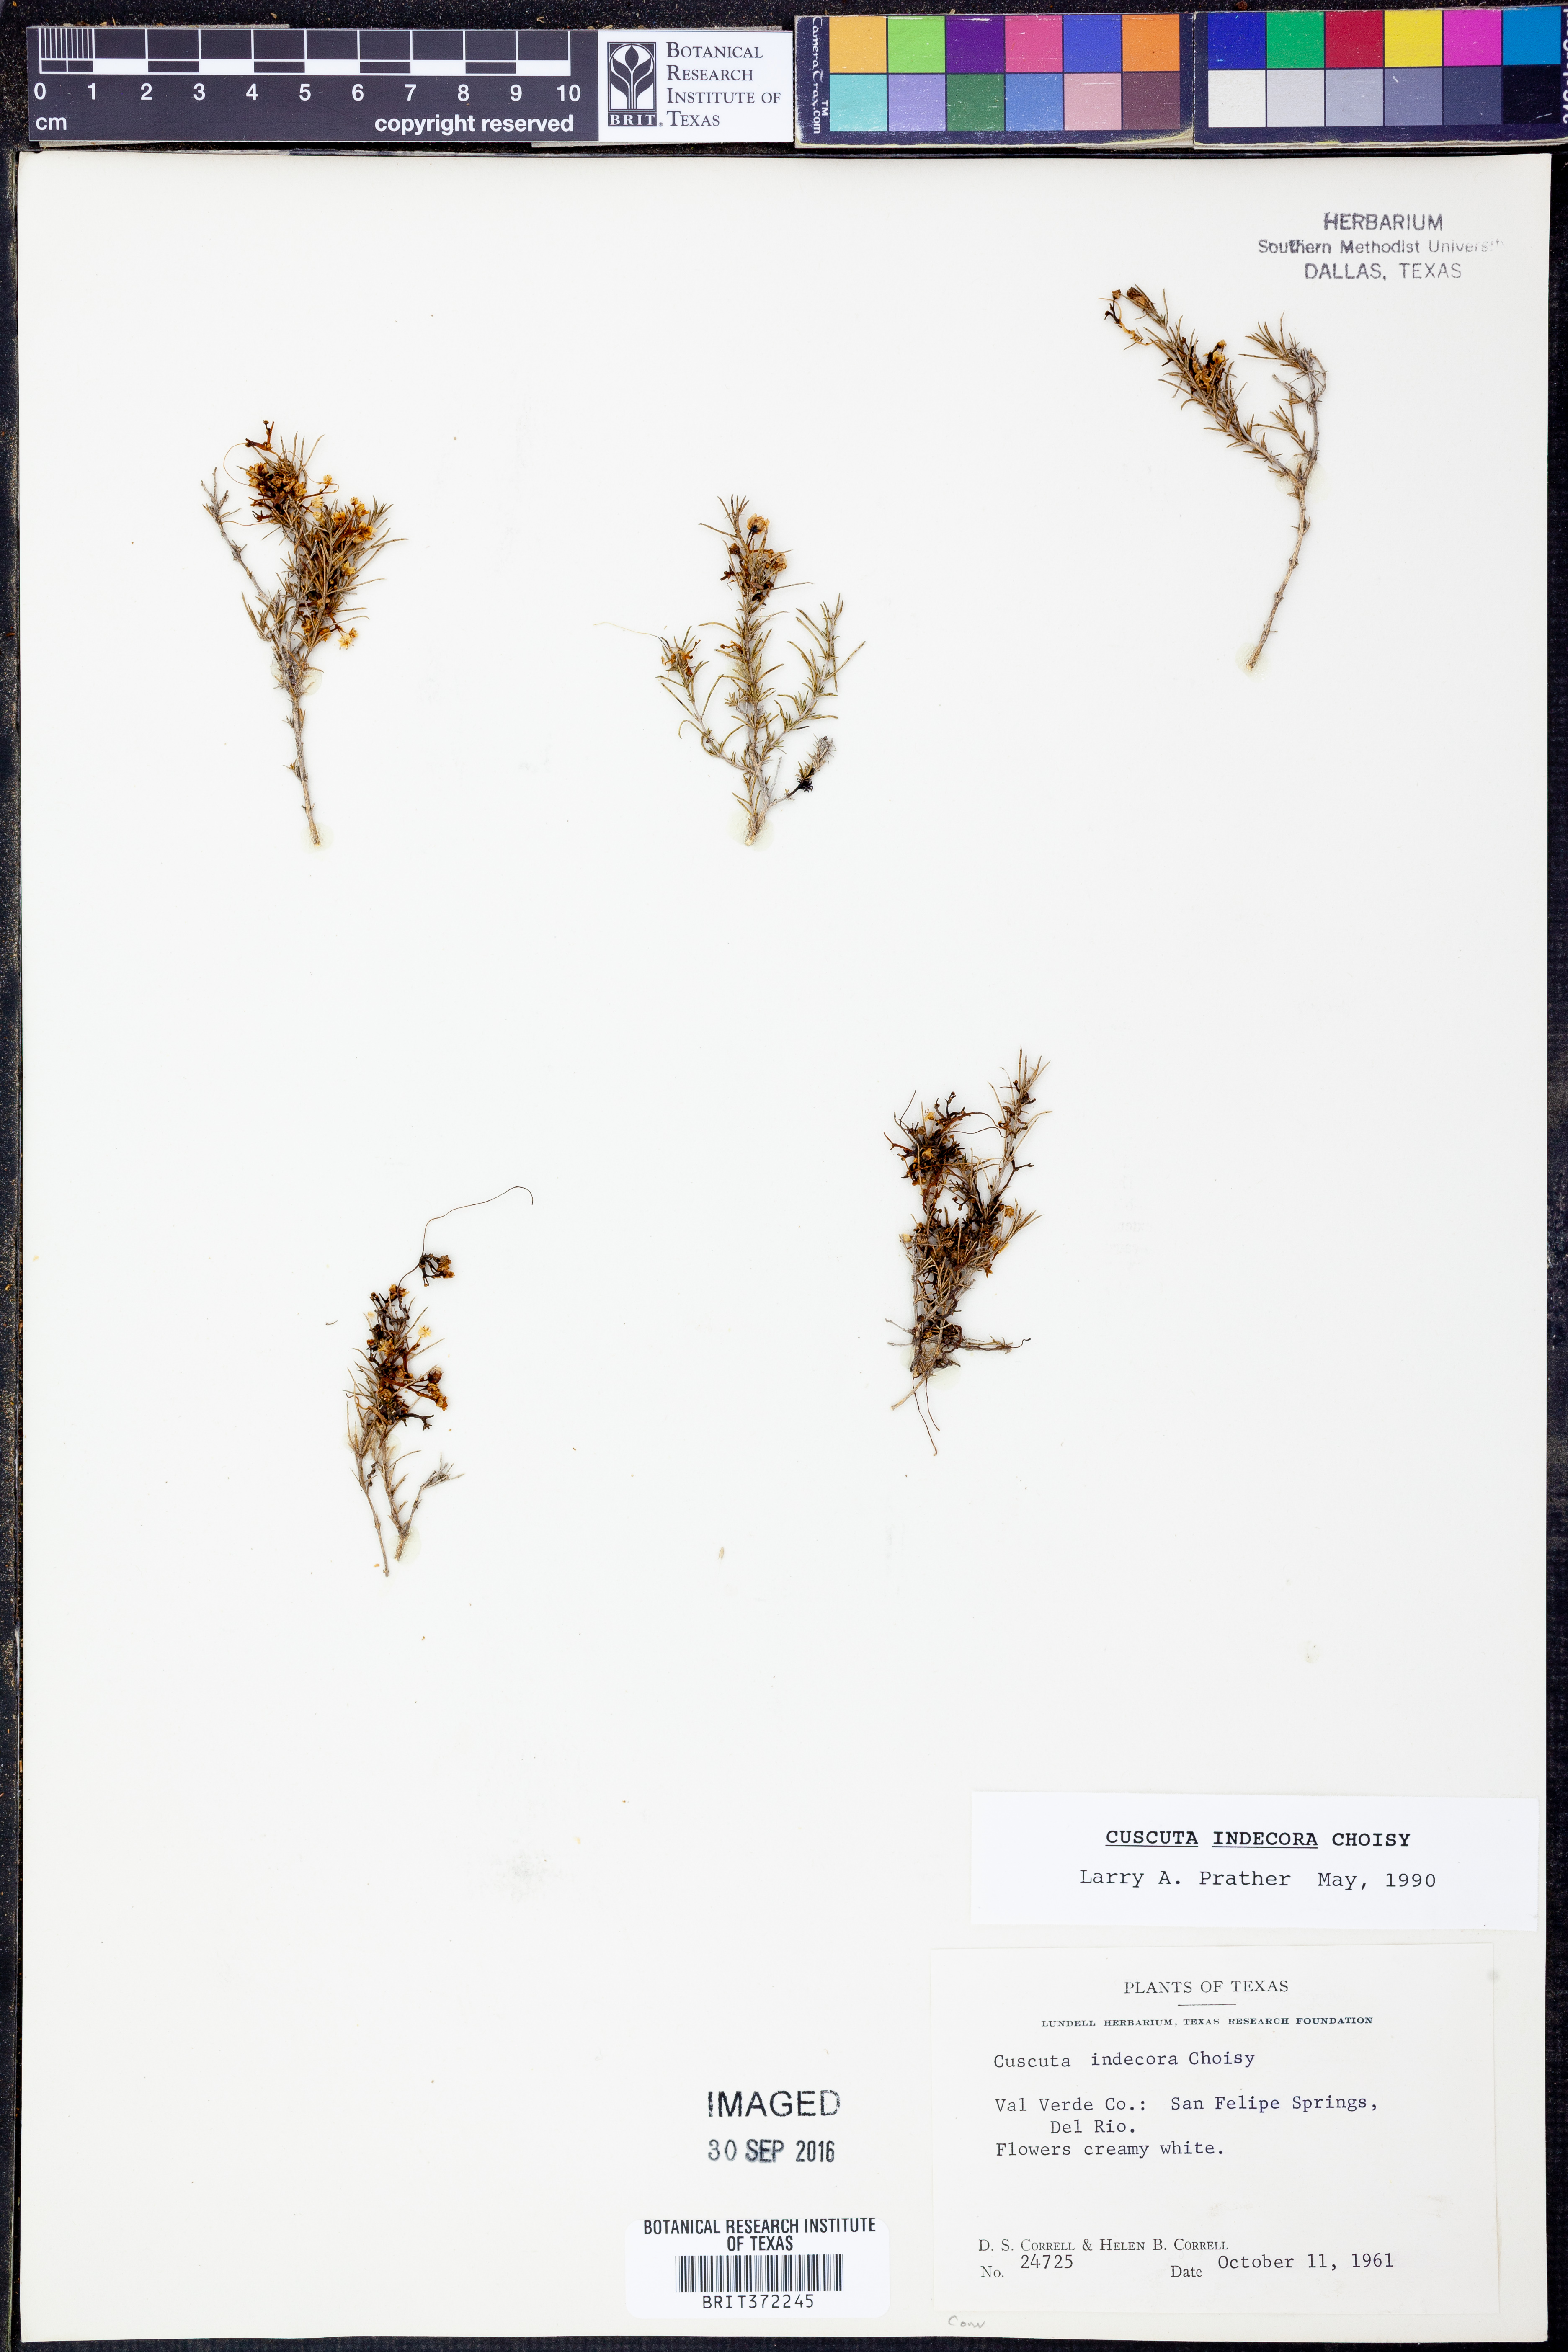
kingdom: Plantae
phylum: Tracheophyta
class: Magnoliopsida
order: Solanales
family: Convolvulaceae
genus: Cuscuta
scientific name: Cuscuta indecora
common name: Large-seed dodder
